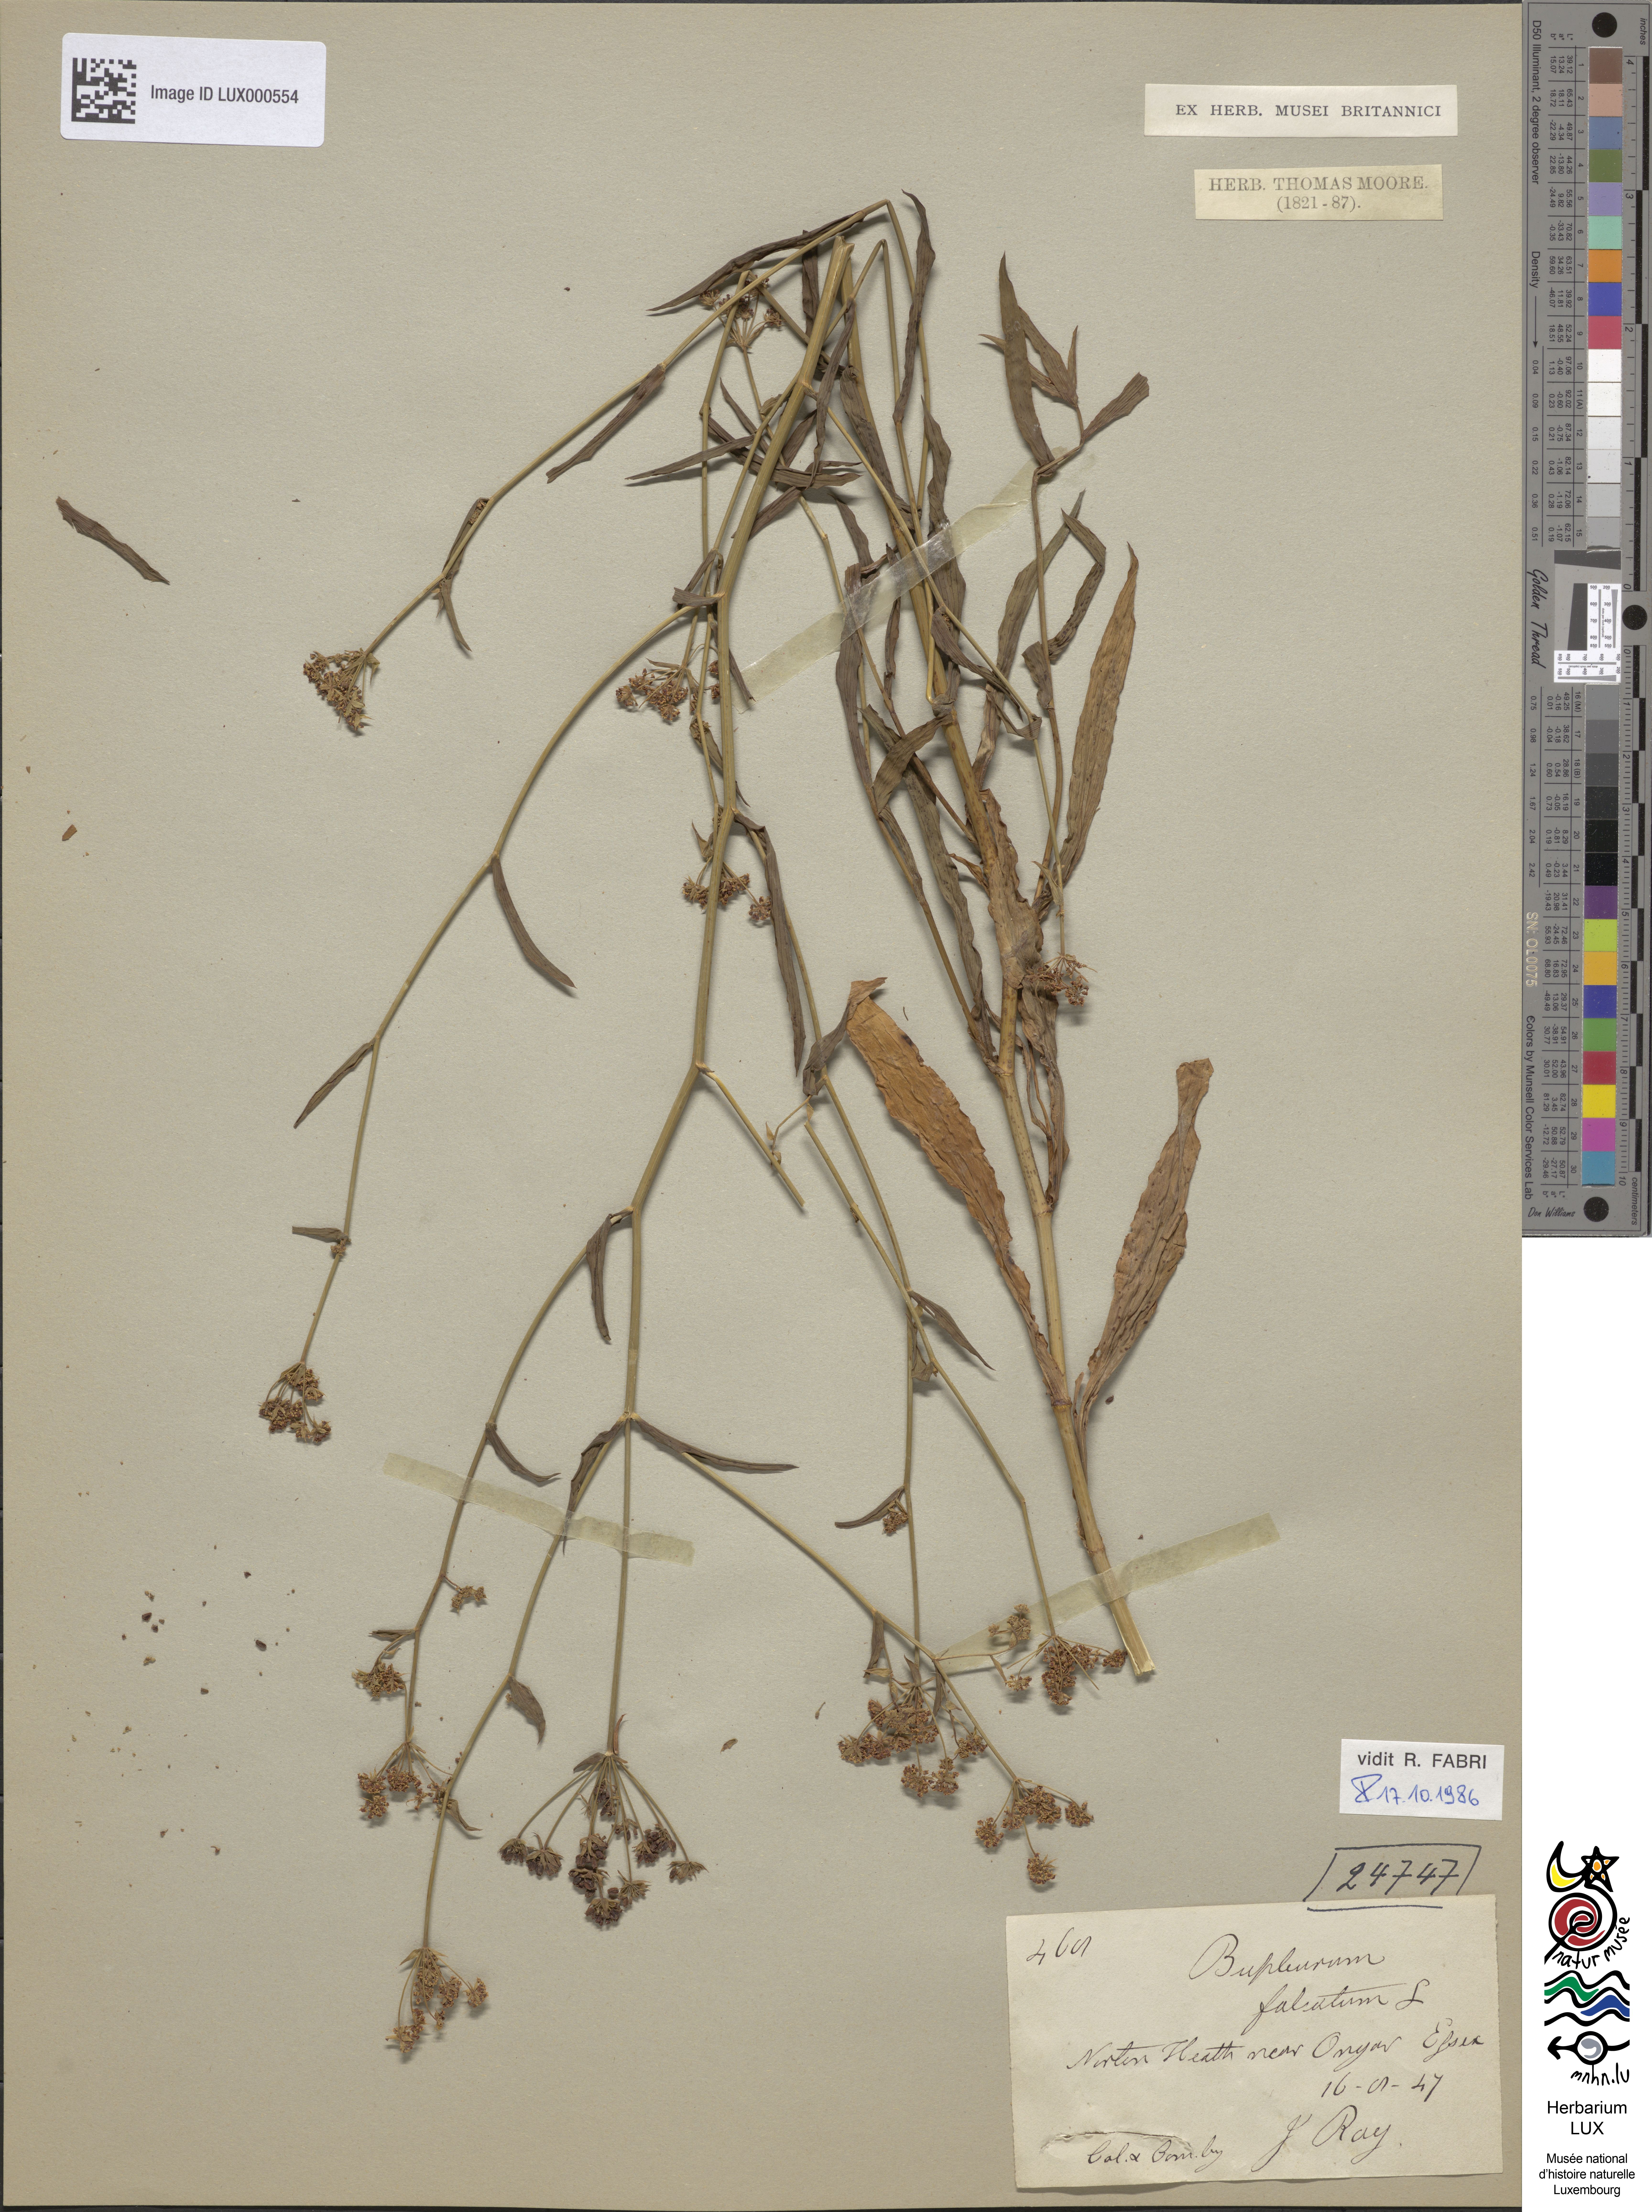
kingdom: Plantae
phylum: Tracheophyta
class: Magnoliopsida
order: Apiales
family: Apiaceae
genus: Bupleurum
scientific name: Bupleurum falcatum
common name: Sickle-leaved hare's-ear
